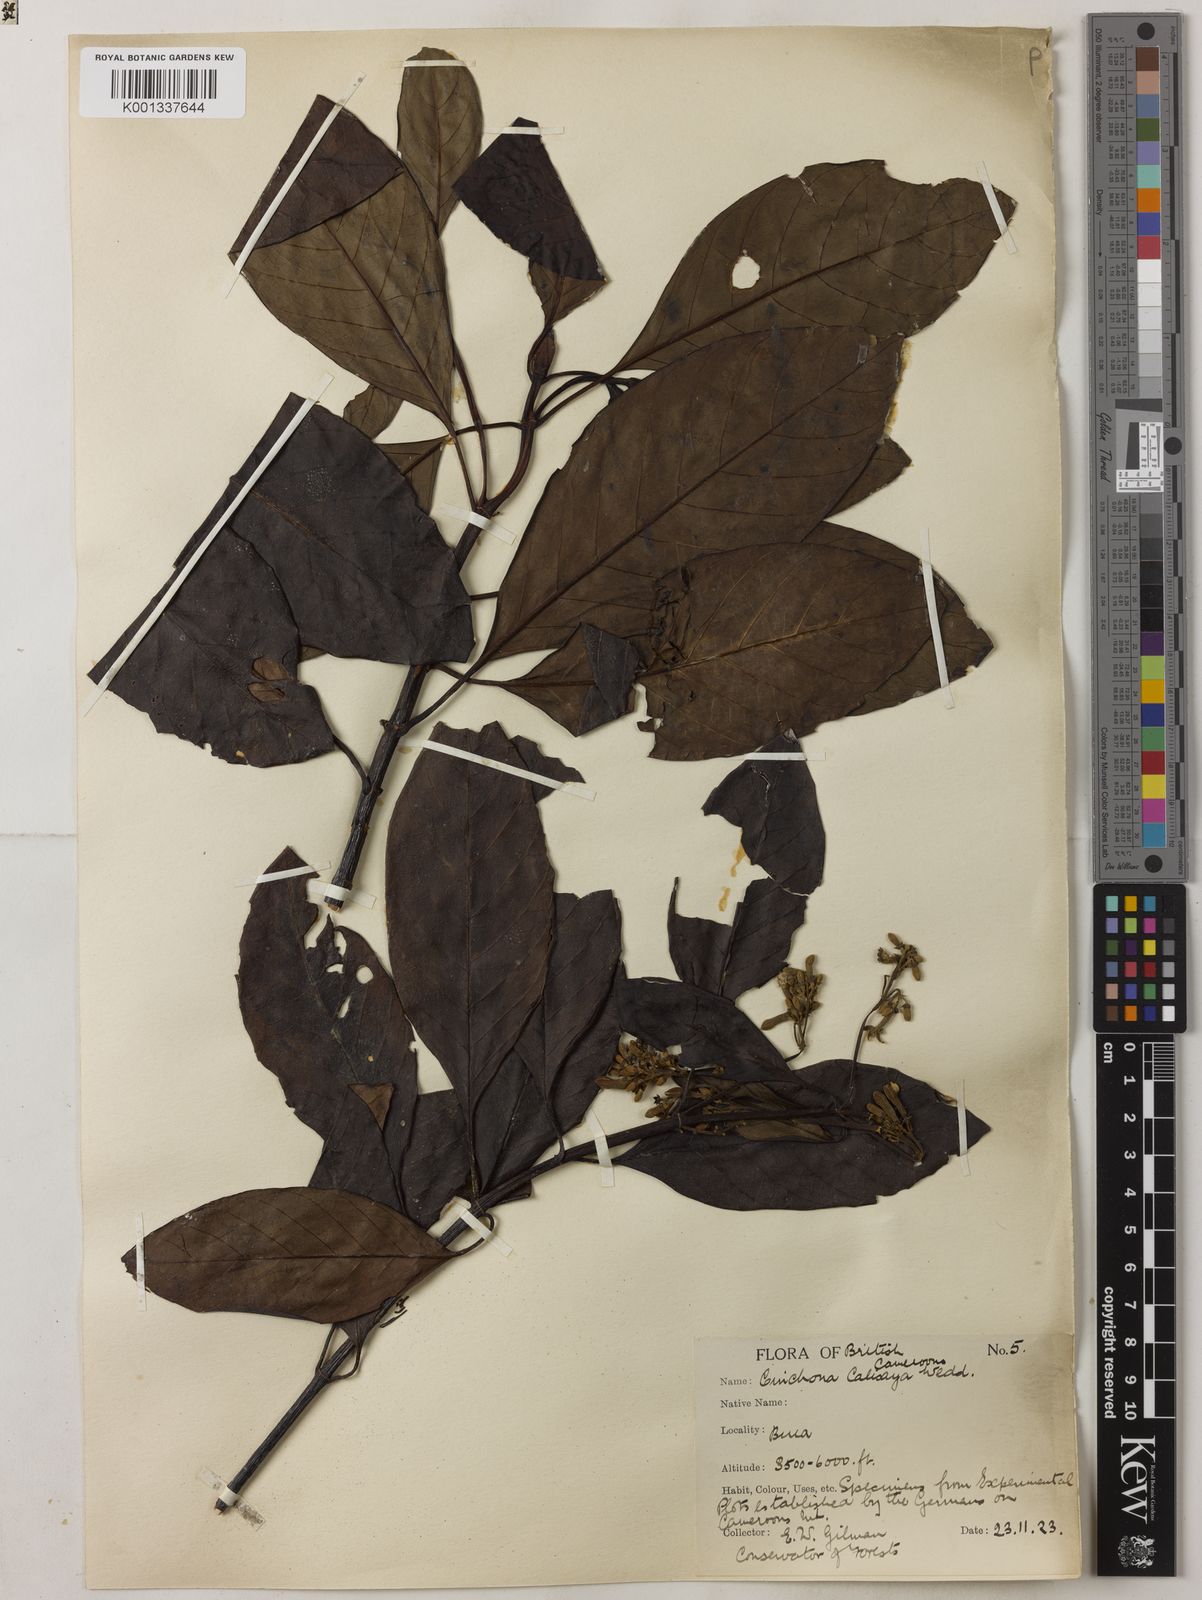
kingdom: Plantae
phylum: Tracheophyta
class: Magnoliopsida
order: Gentianales
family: Rubiaceae
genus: Cinchona
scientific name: Cinchona calisaya
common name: Ledgerbark
